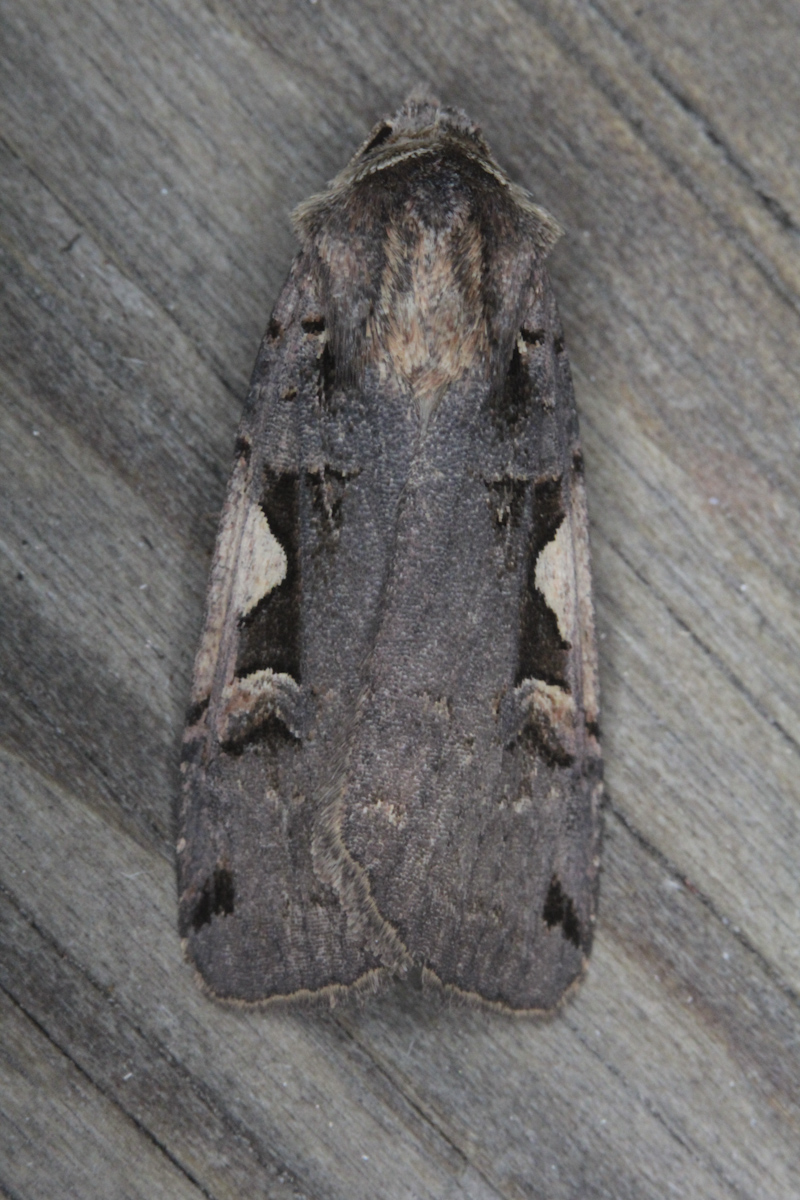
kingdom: Animalia
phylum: Arthropoda
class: Insecta
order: Lepidoptera
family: Noctuidae
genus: Xestia
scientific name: Xestia c-nigrum
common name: Setaceous hebrew character
